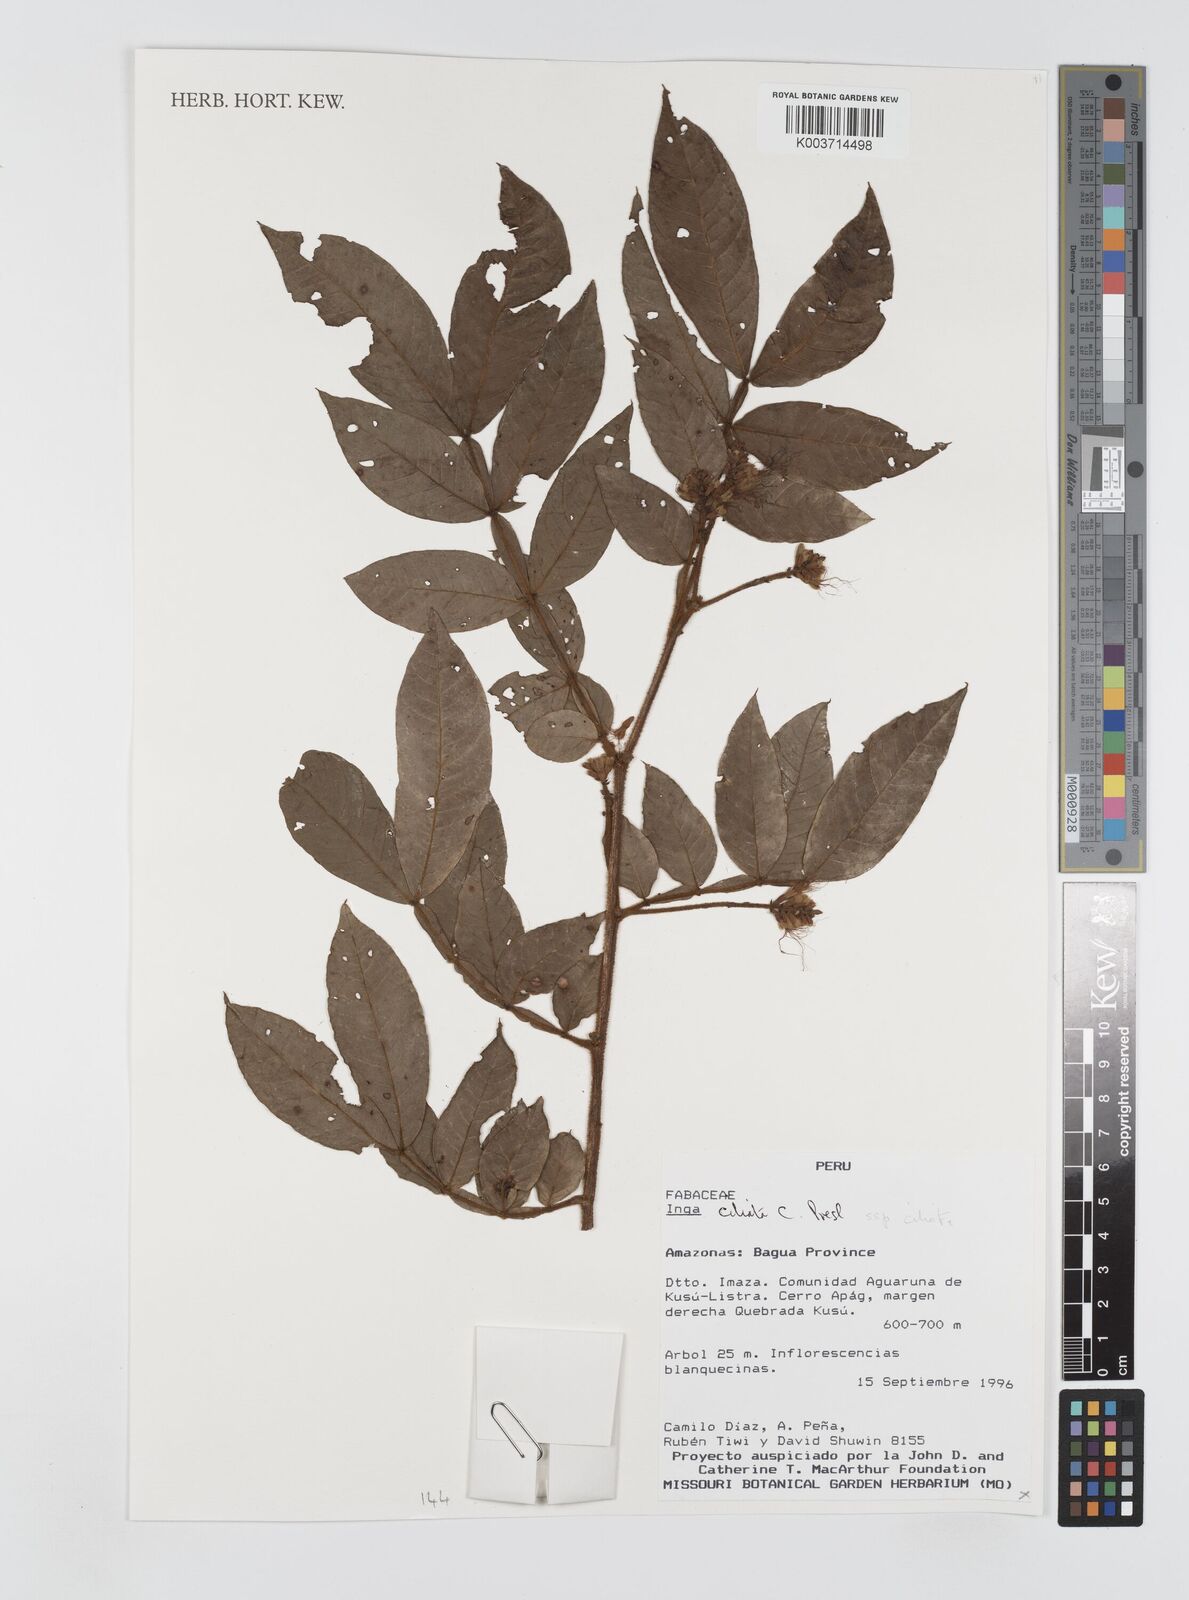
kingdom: Plantae
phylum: Tracheophyta
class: Magnoliopsida
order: Fabales
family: Fabaceae
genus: Inga
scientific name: Inga
